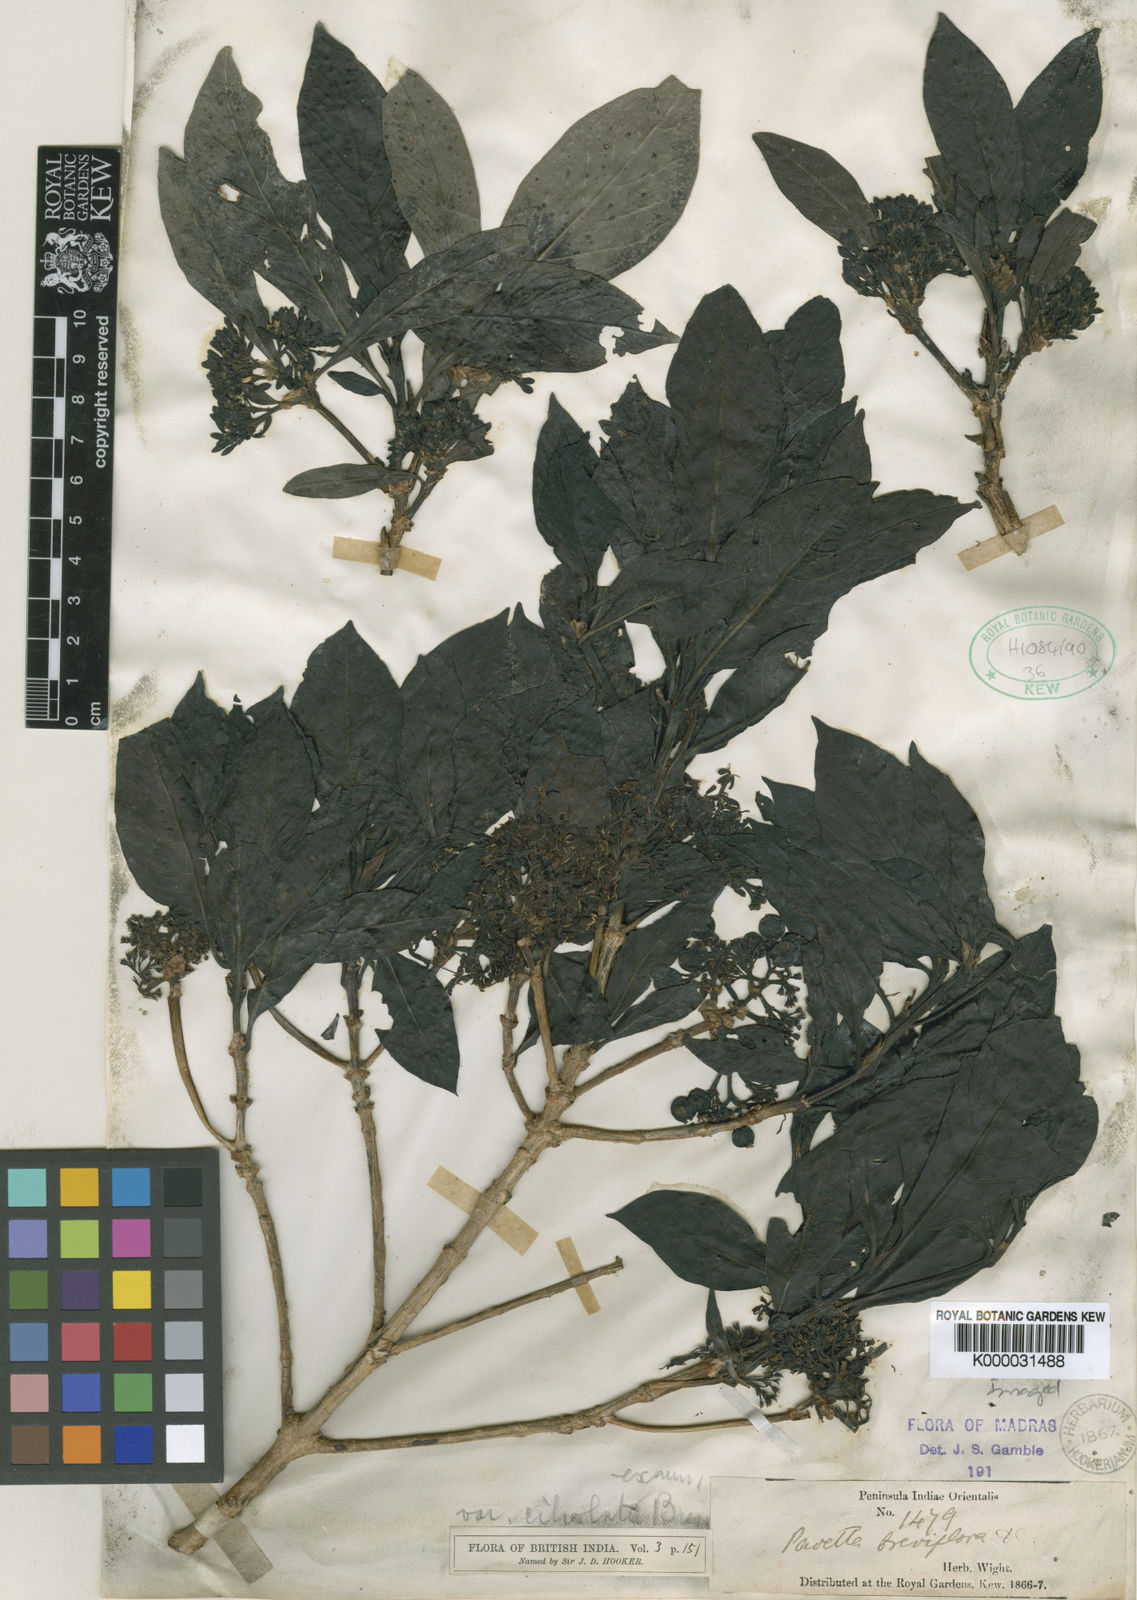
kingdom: Plantae
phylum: Tracheophyta
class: Magnoliopsida
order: Gentianales
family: Rubiaceae
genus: Pavetta
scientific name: Pavetta breviflora
